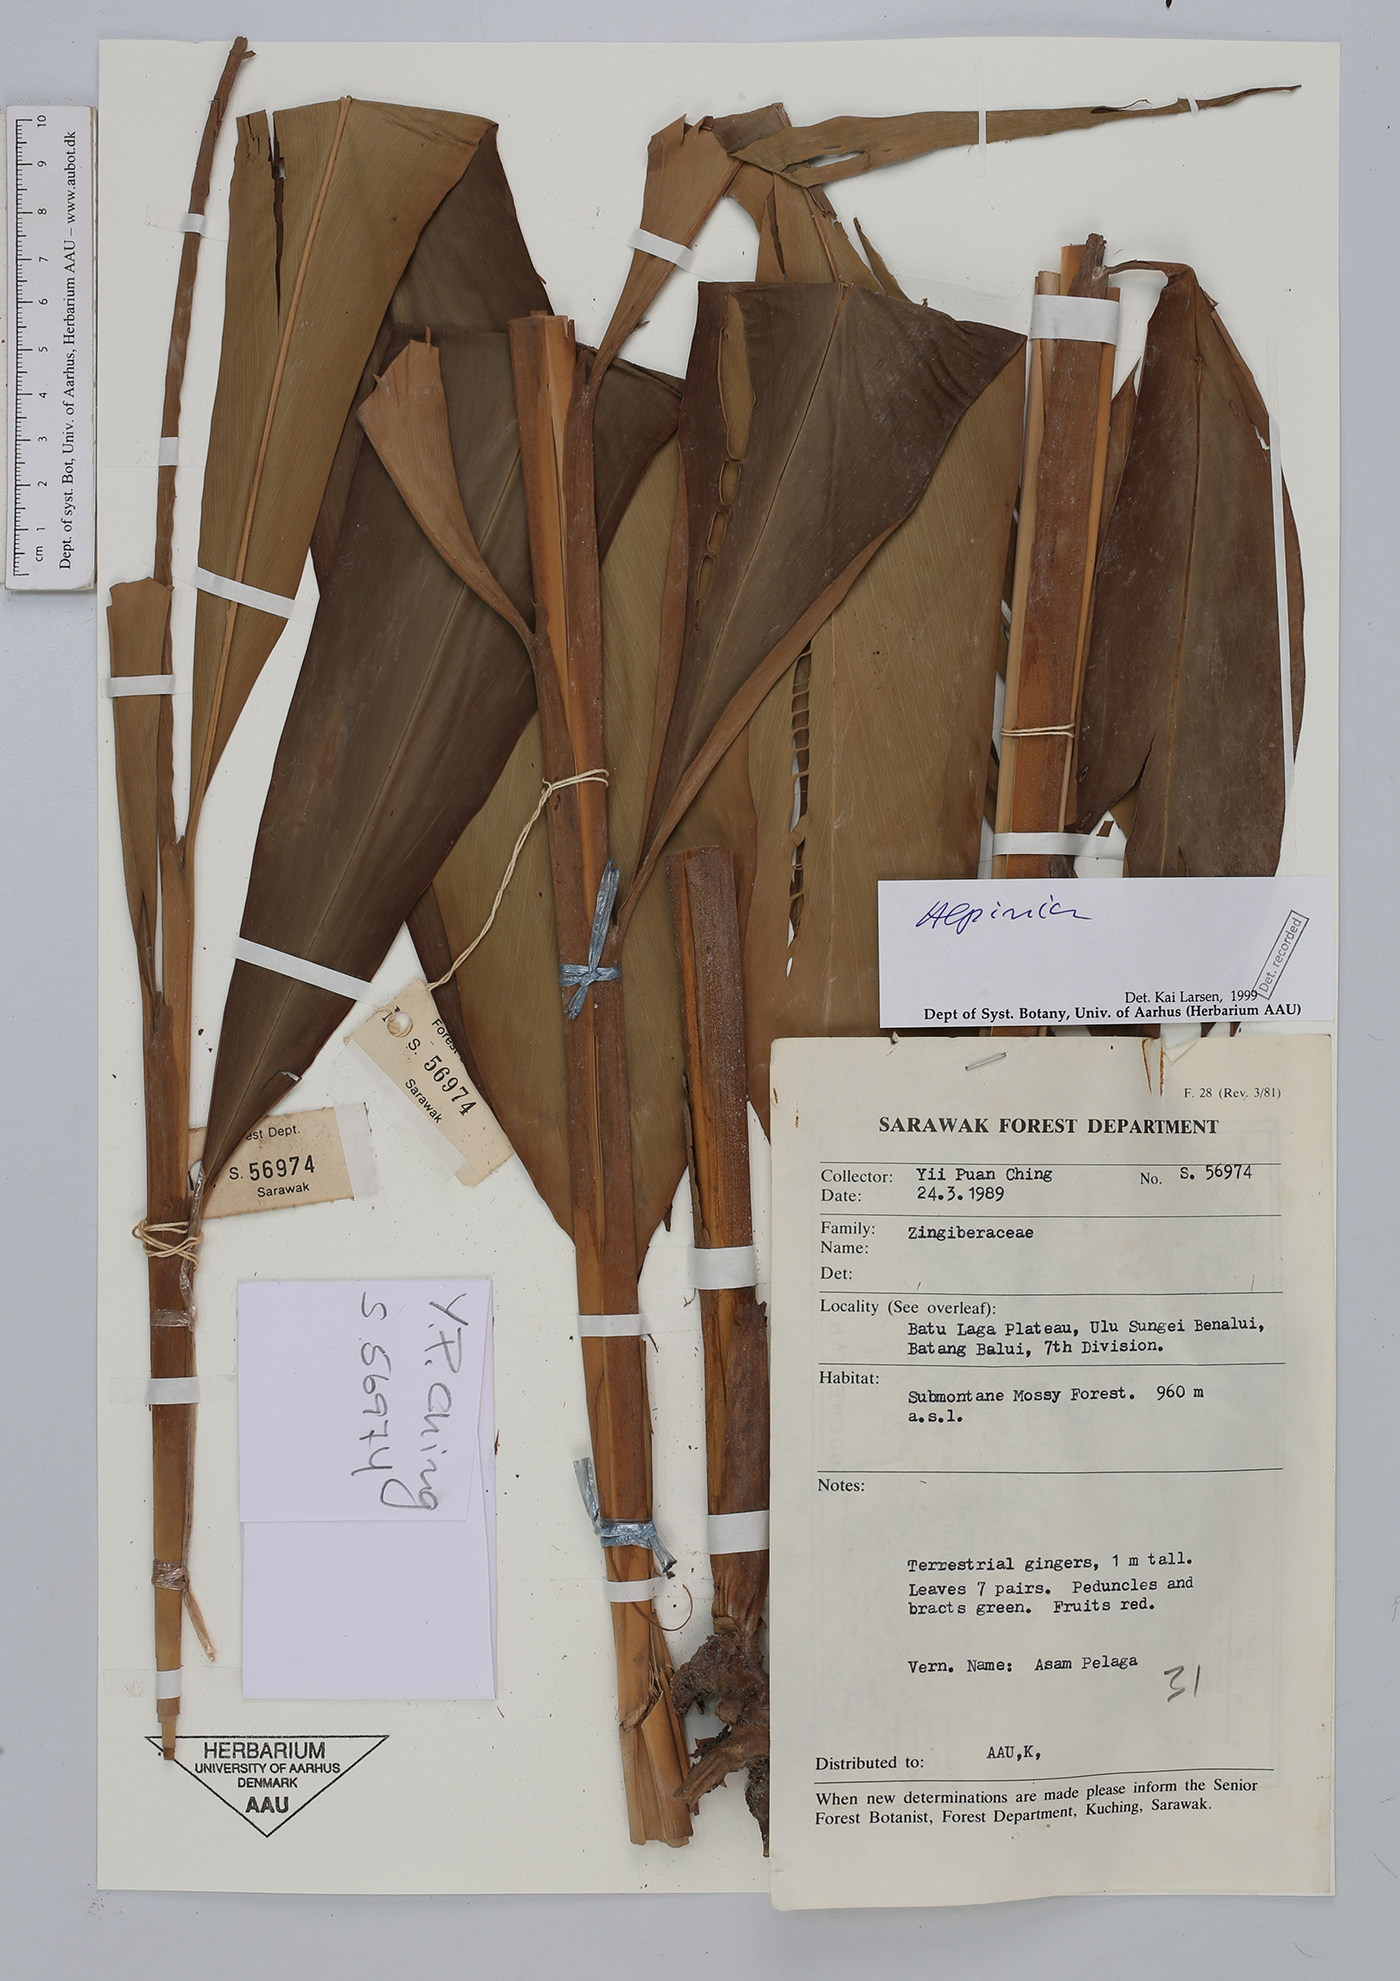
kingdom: Plantae
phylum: Tracheophyta
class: Liliopsida
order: Zingiberales
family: Zingiberaceae
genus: Alpinia
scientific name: Alpinia
